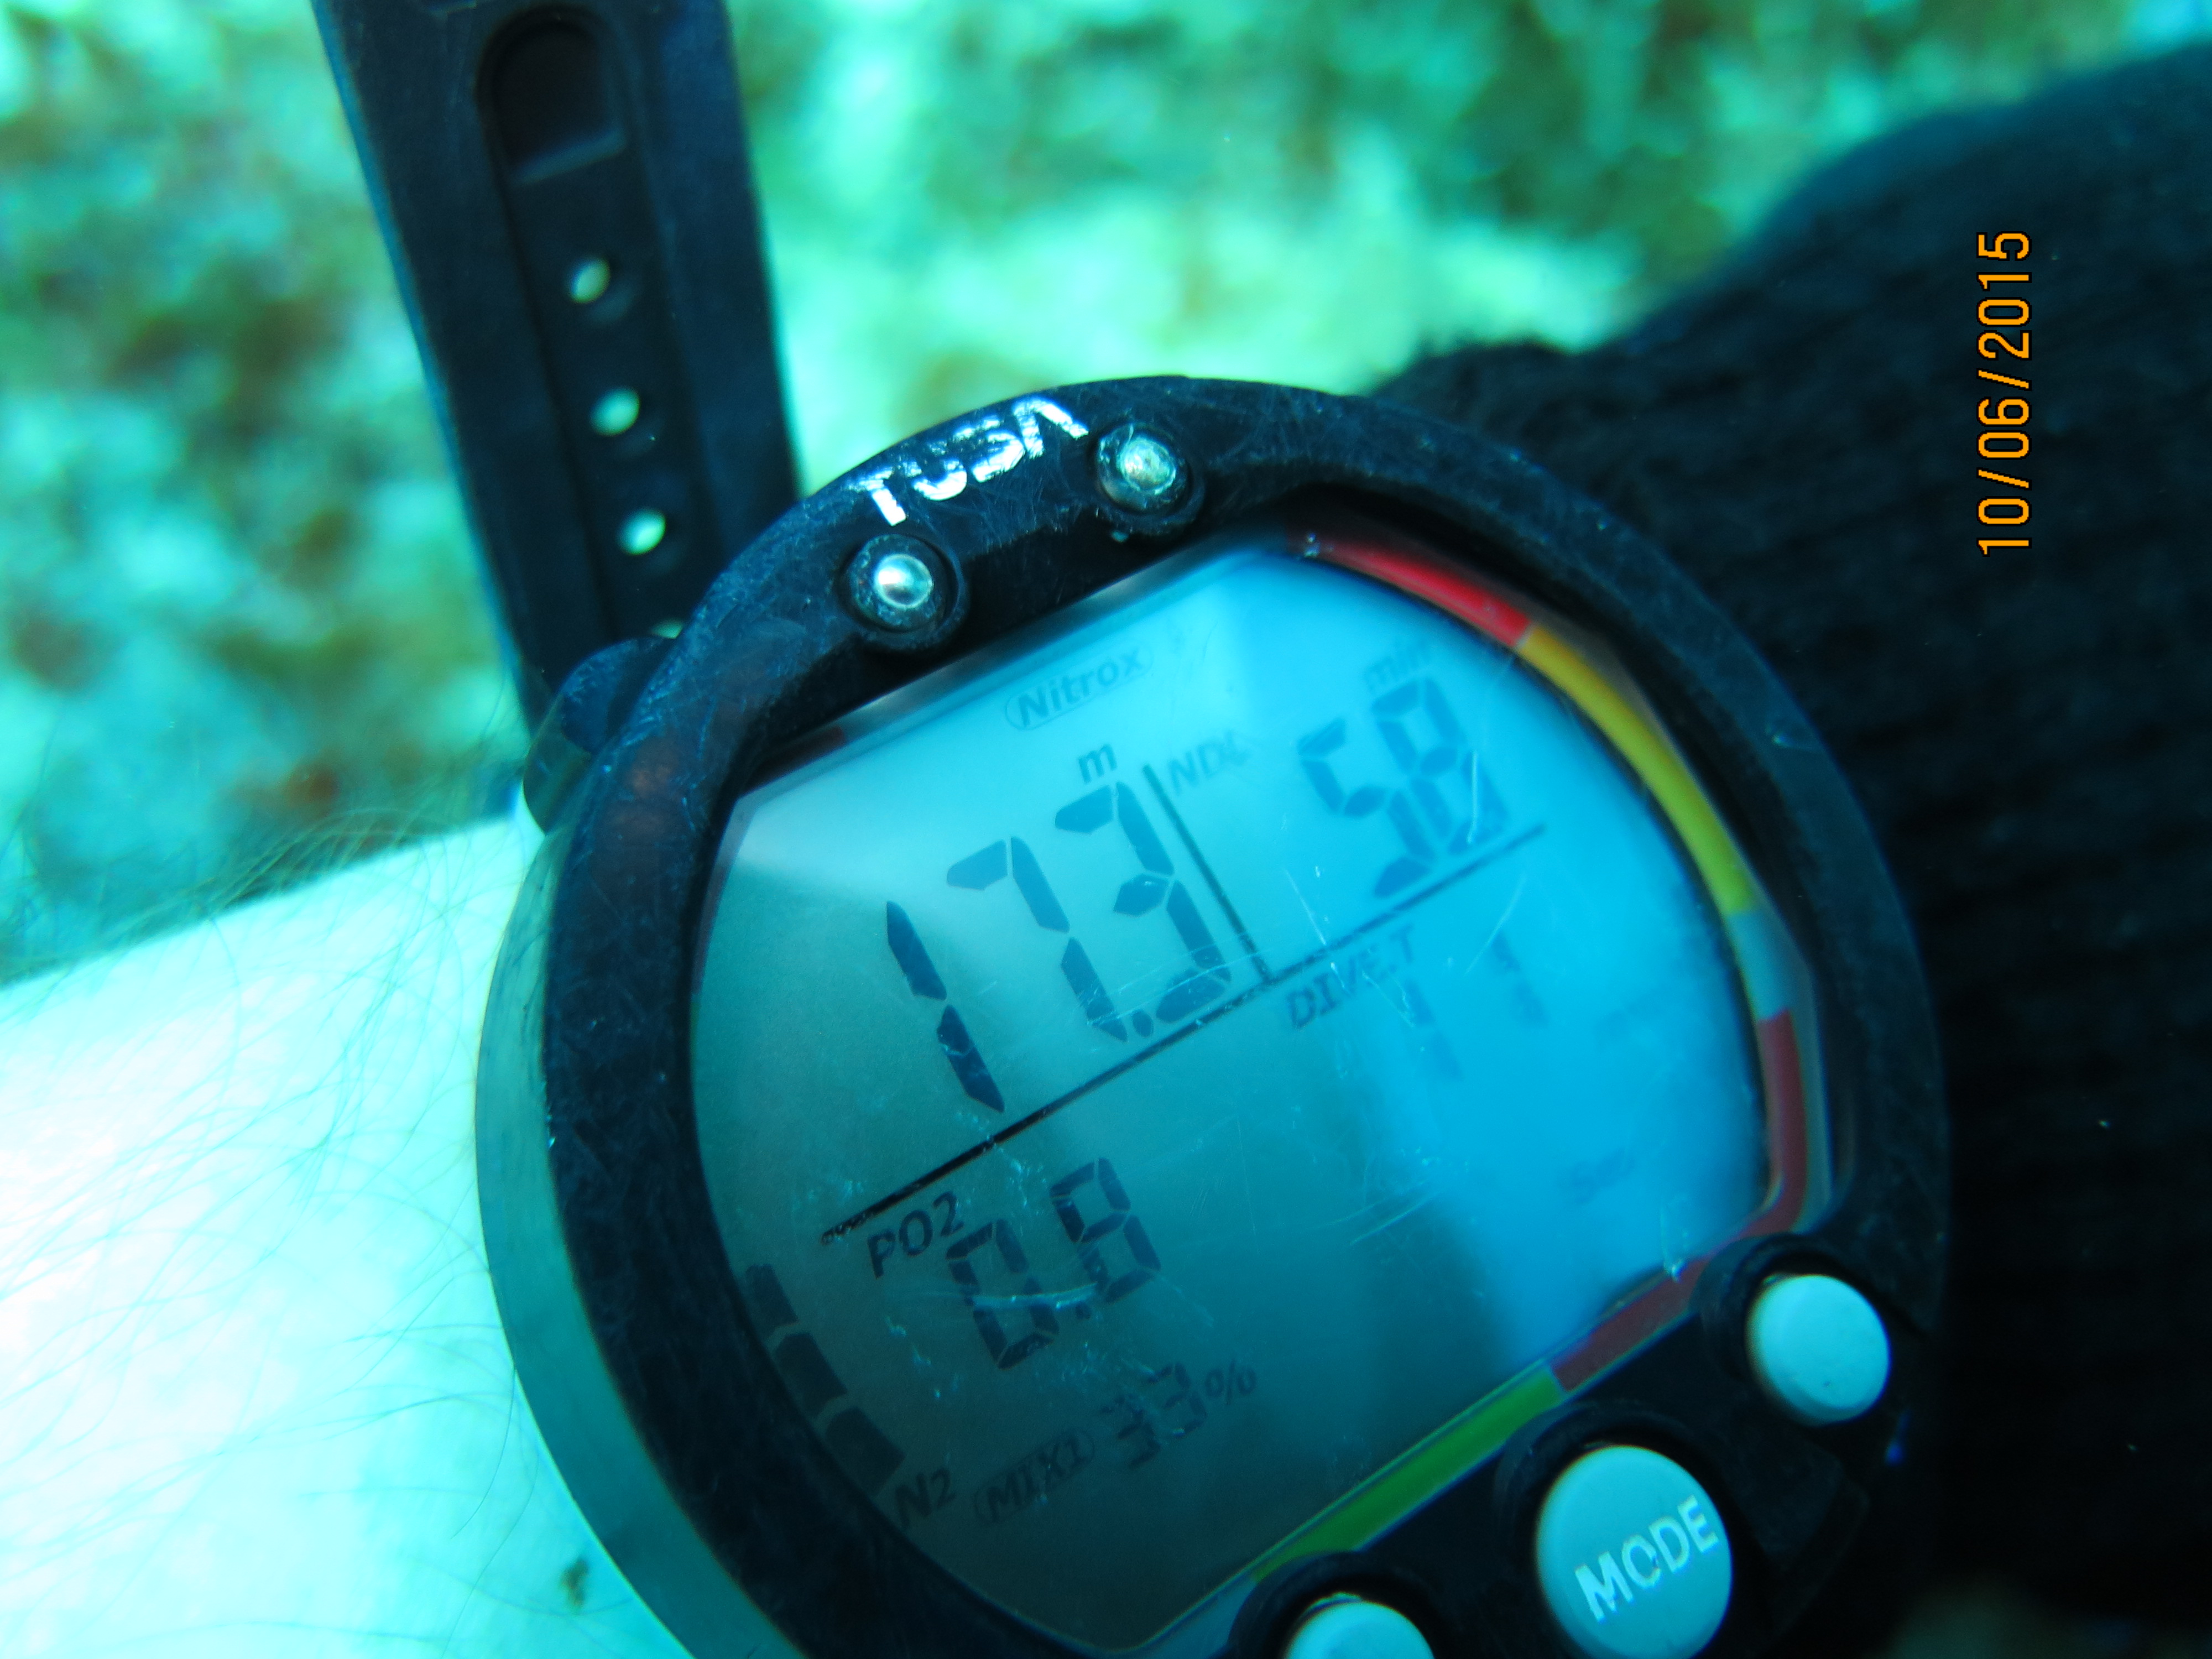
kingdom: Animalia
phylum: Porifera
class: Demospongiae
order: Haplosclerida
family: Niphatidae
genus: Niphates
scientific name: Niphates digitalis
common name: Pink vase sponge
